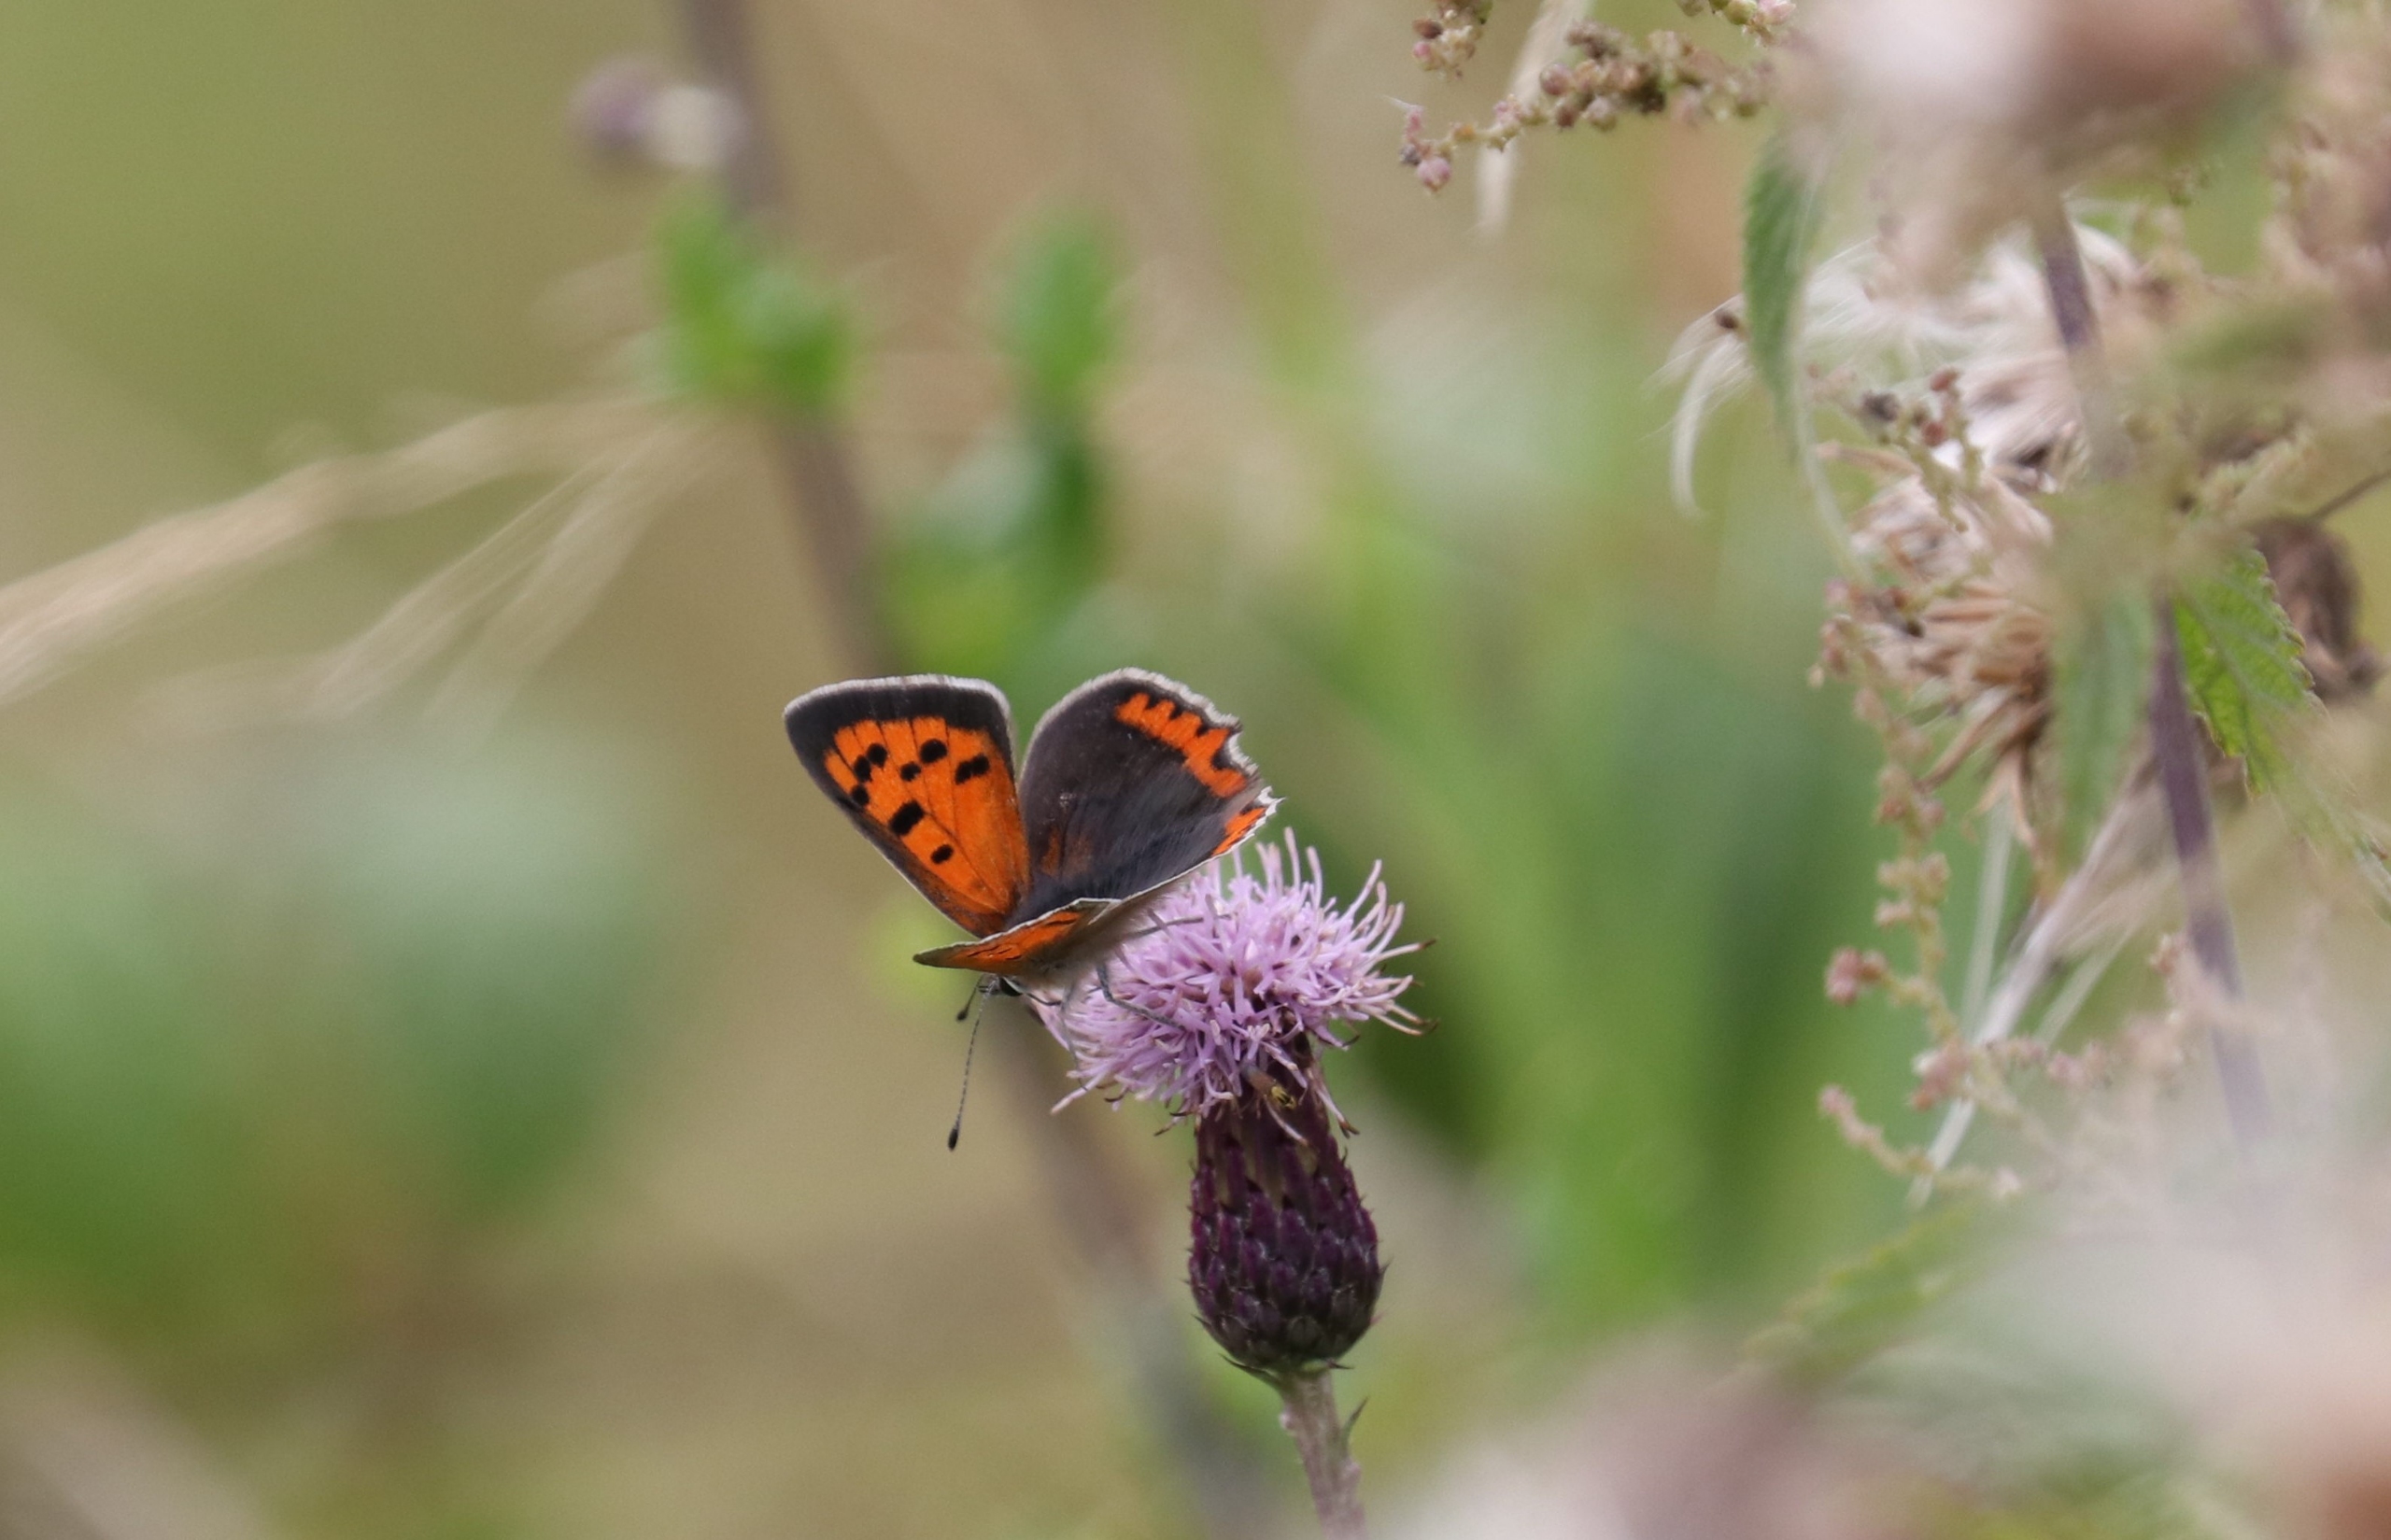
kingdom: Animalia
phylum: Arthropoda
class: Insecta
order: Lepidoptera
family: Lycaenidae
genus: Lycaena
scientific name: Lycaena phlaeas
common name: Lille ildfugl
